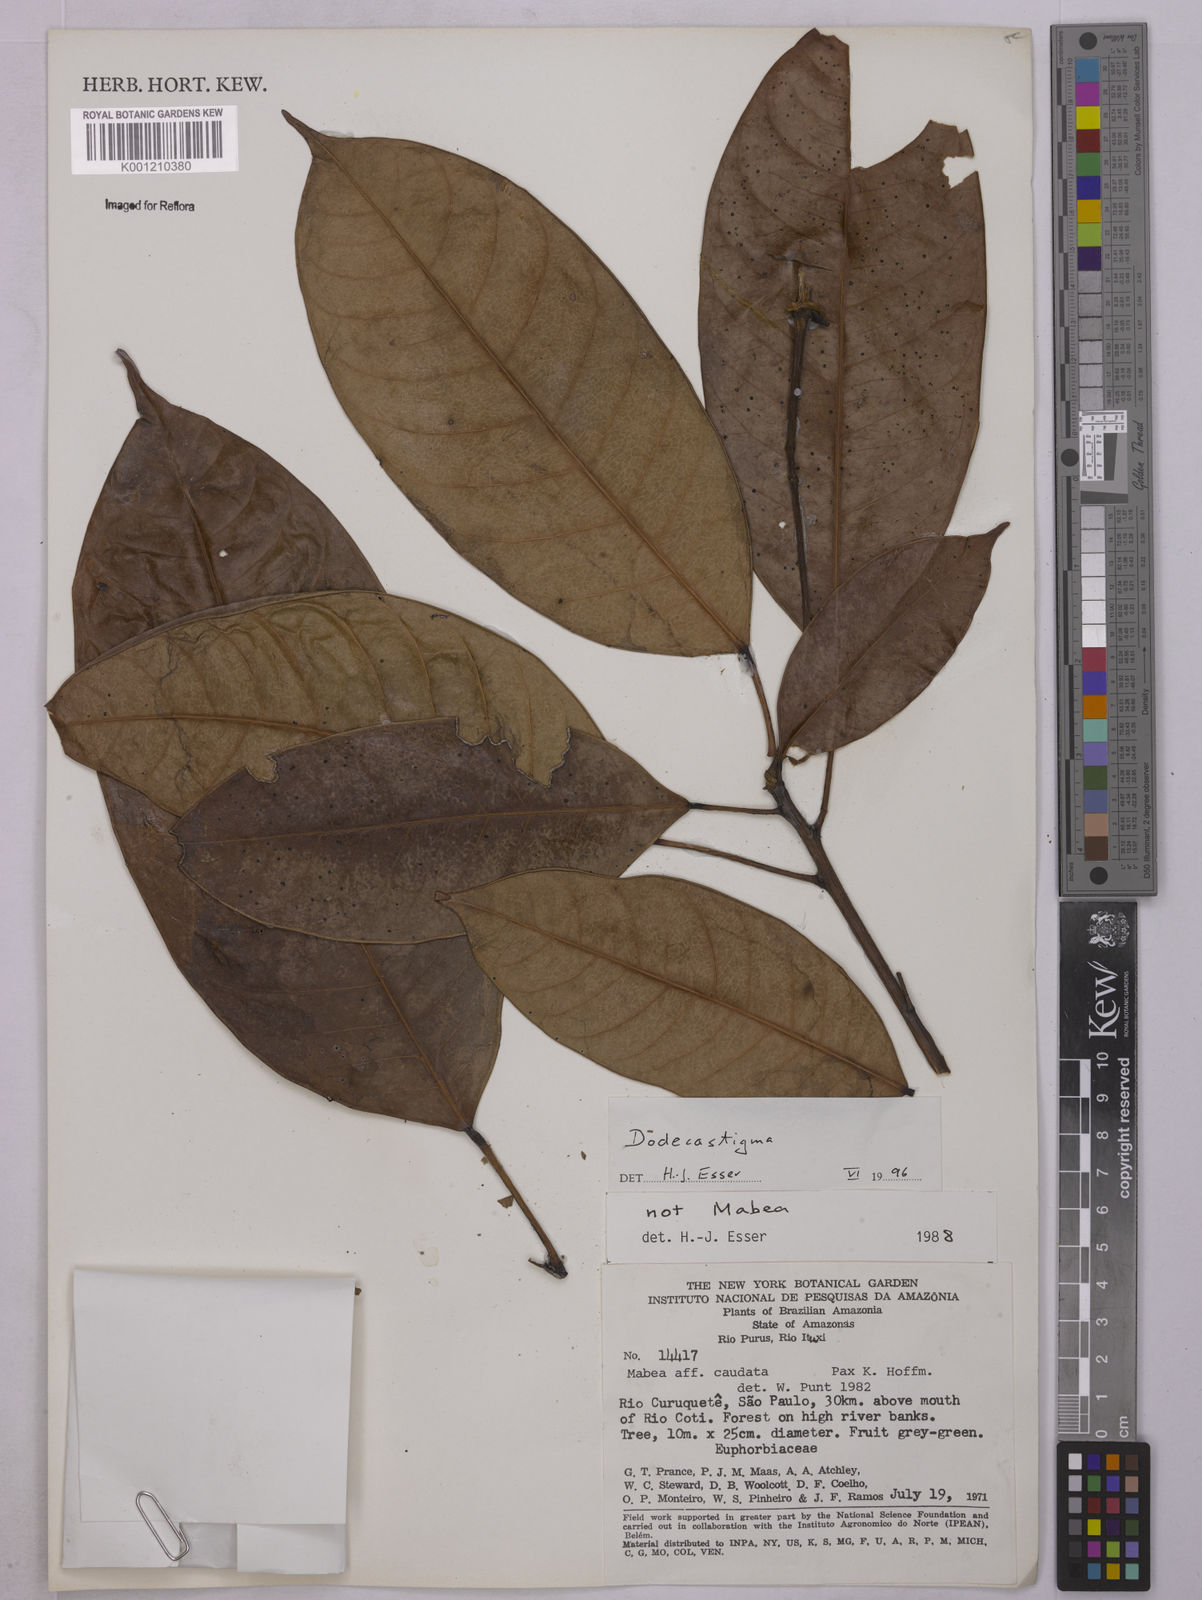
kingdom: Plantae
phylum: Tracheophyta
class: Magnoliopsida
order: Malpighiales
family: Euphorbiaceae
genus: Dodecastigma
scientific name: Dodecastigma
